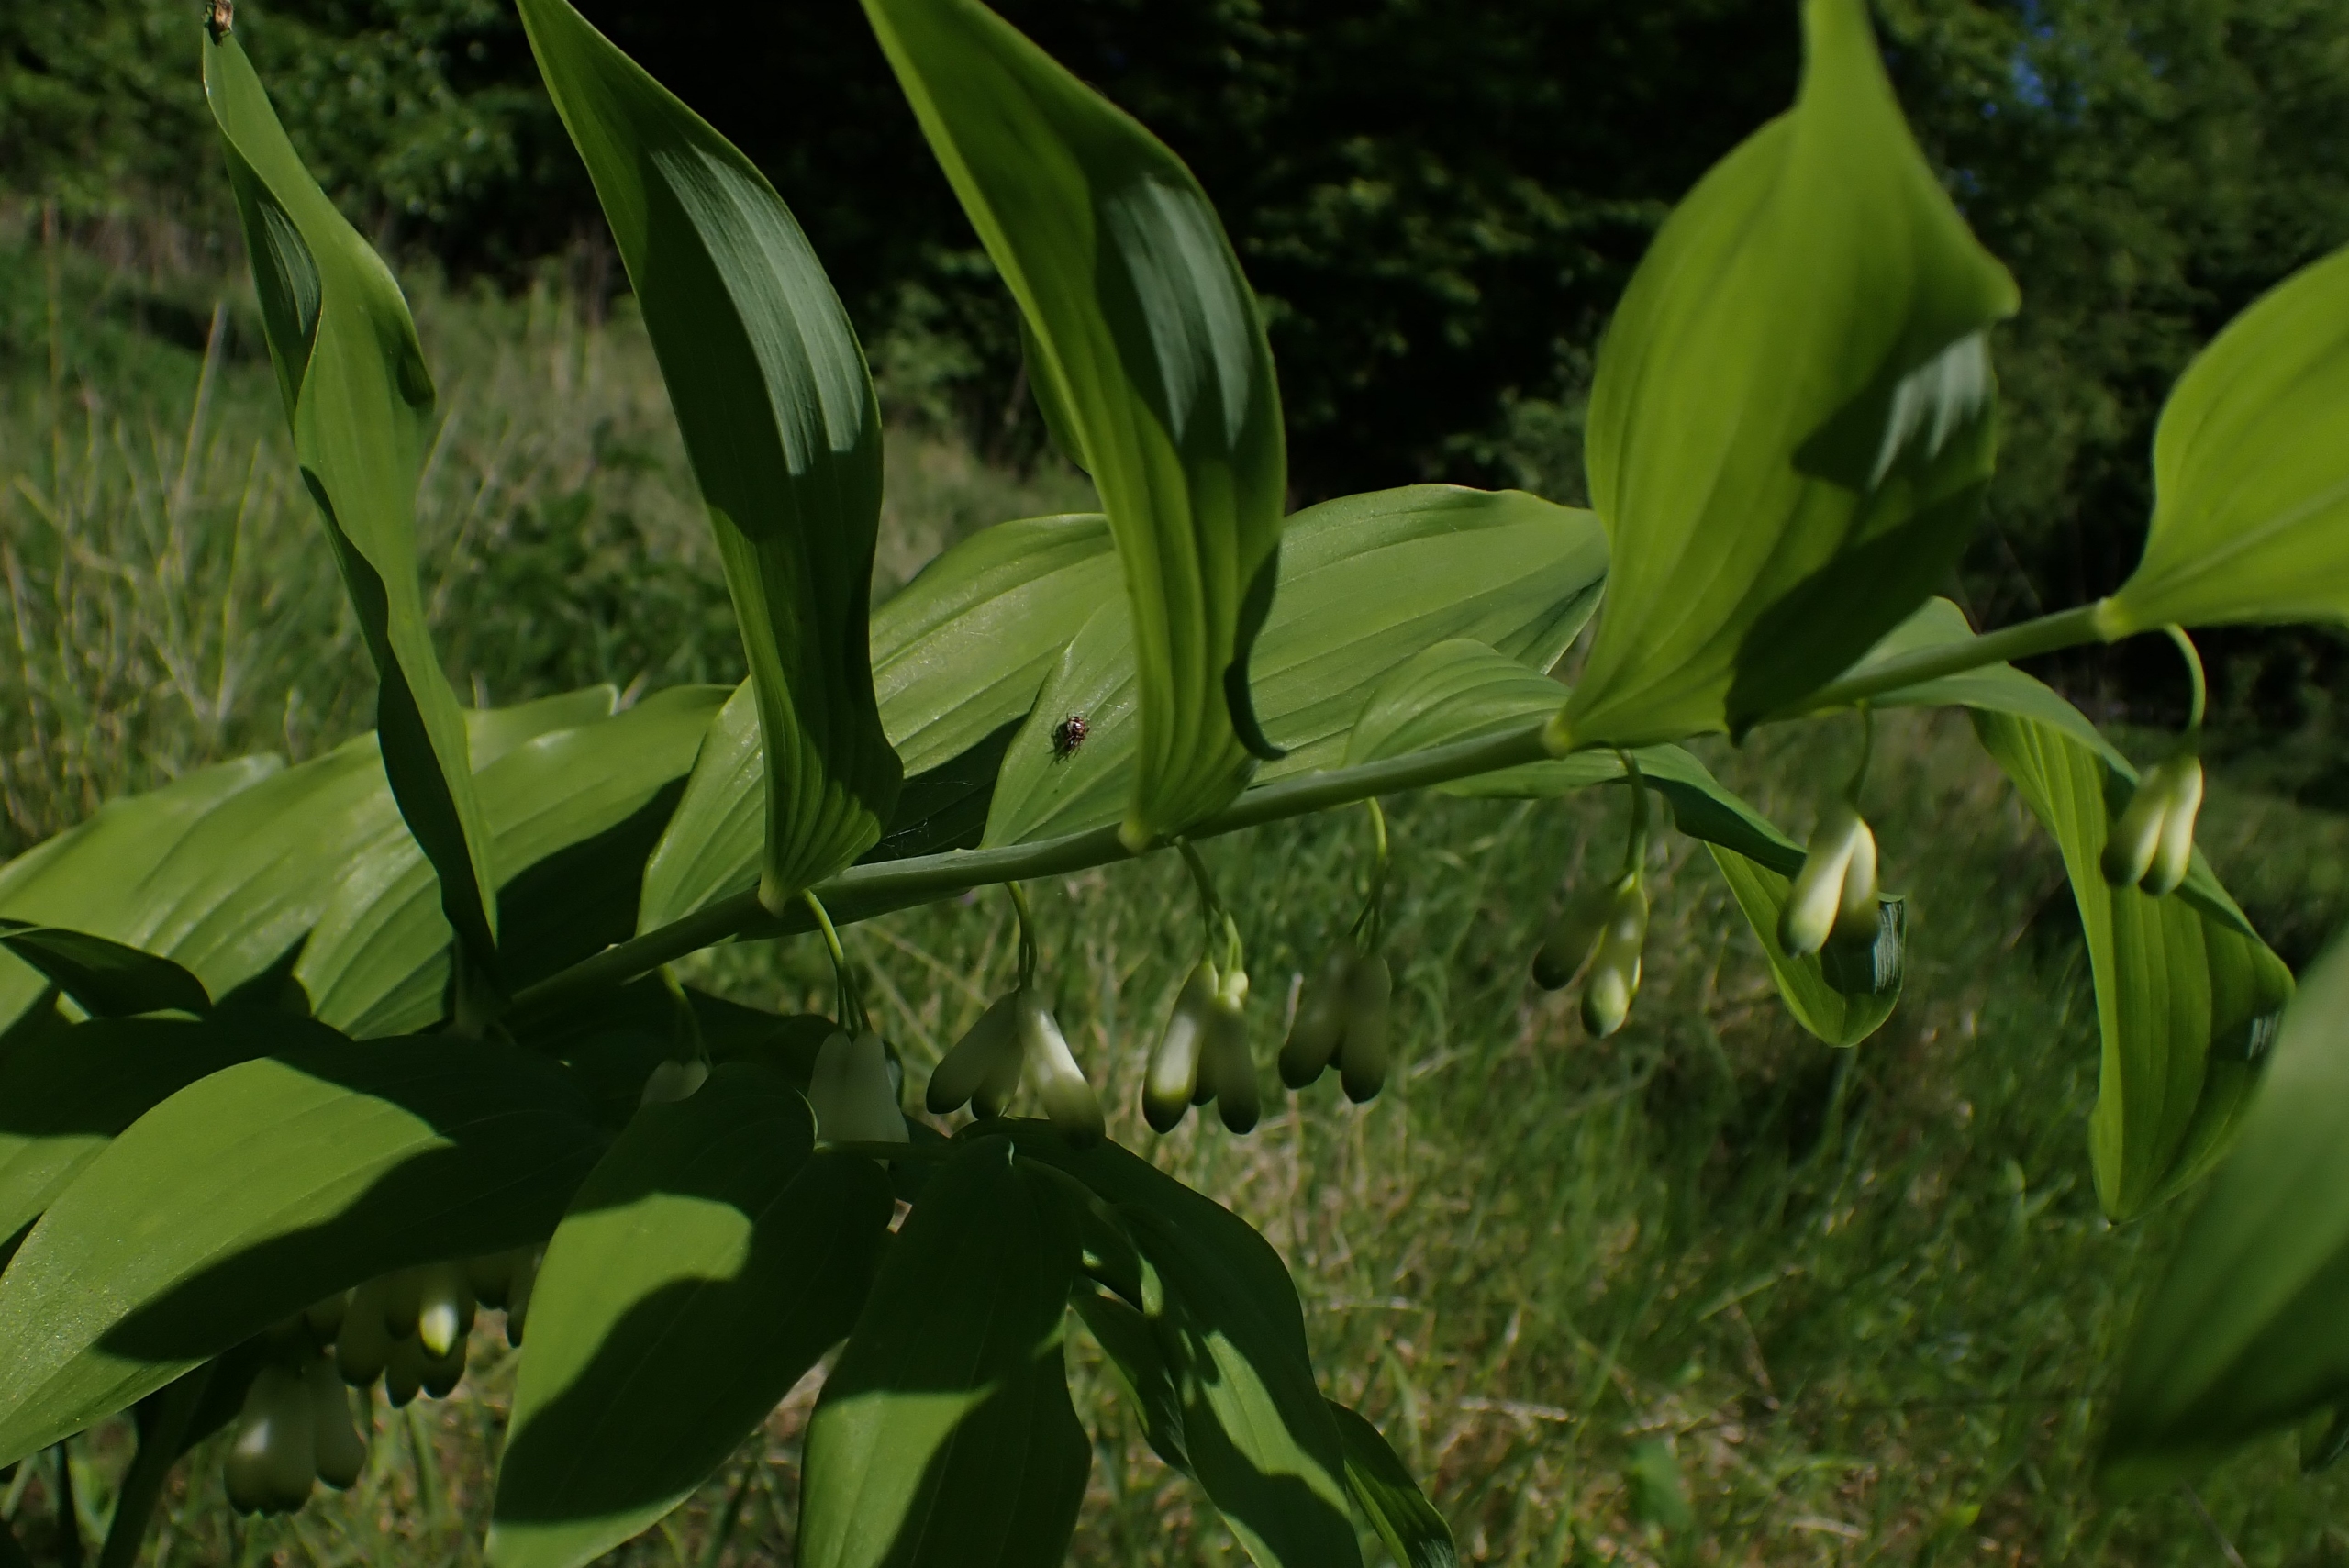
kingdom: Plantae
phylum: Tracheophyta
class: Liliopsida
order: Asparagales
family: Asparagaceae
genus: Polygonatum
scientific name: Polygonatum
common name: Hybrid-konval
